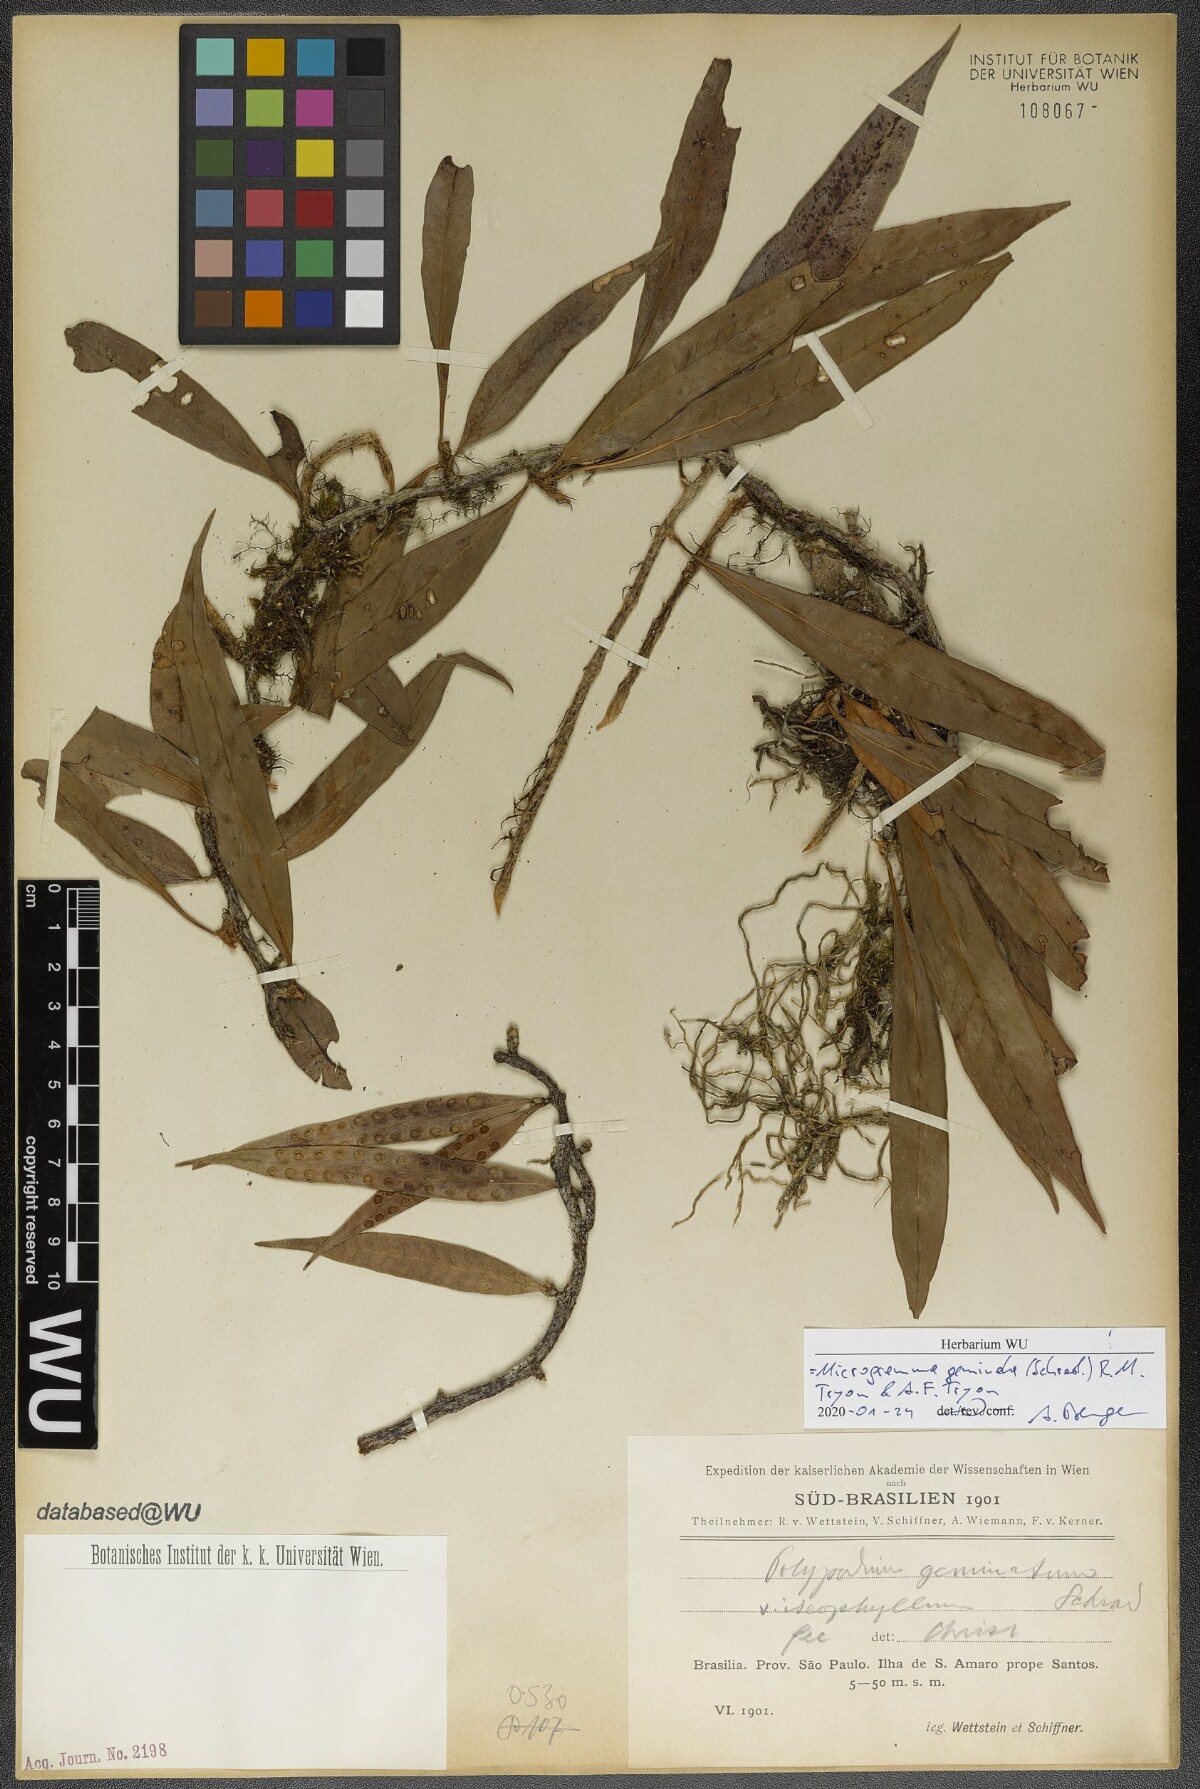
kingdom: Plantae
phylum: Tracheophyta
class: Polypodiopsida
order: Polypodiales
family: Polypodiaceae
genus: Microgramma
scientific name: Microgramma geminata
